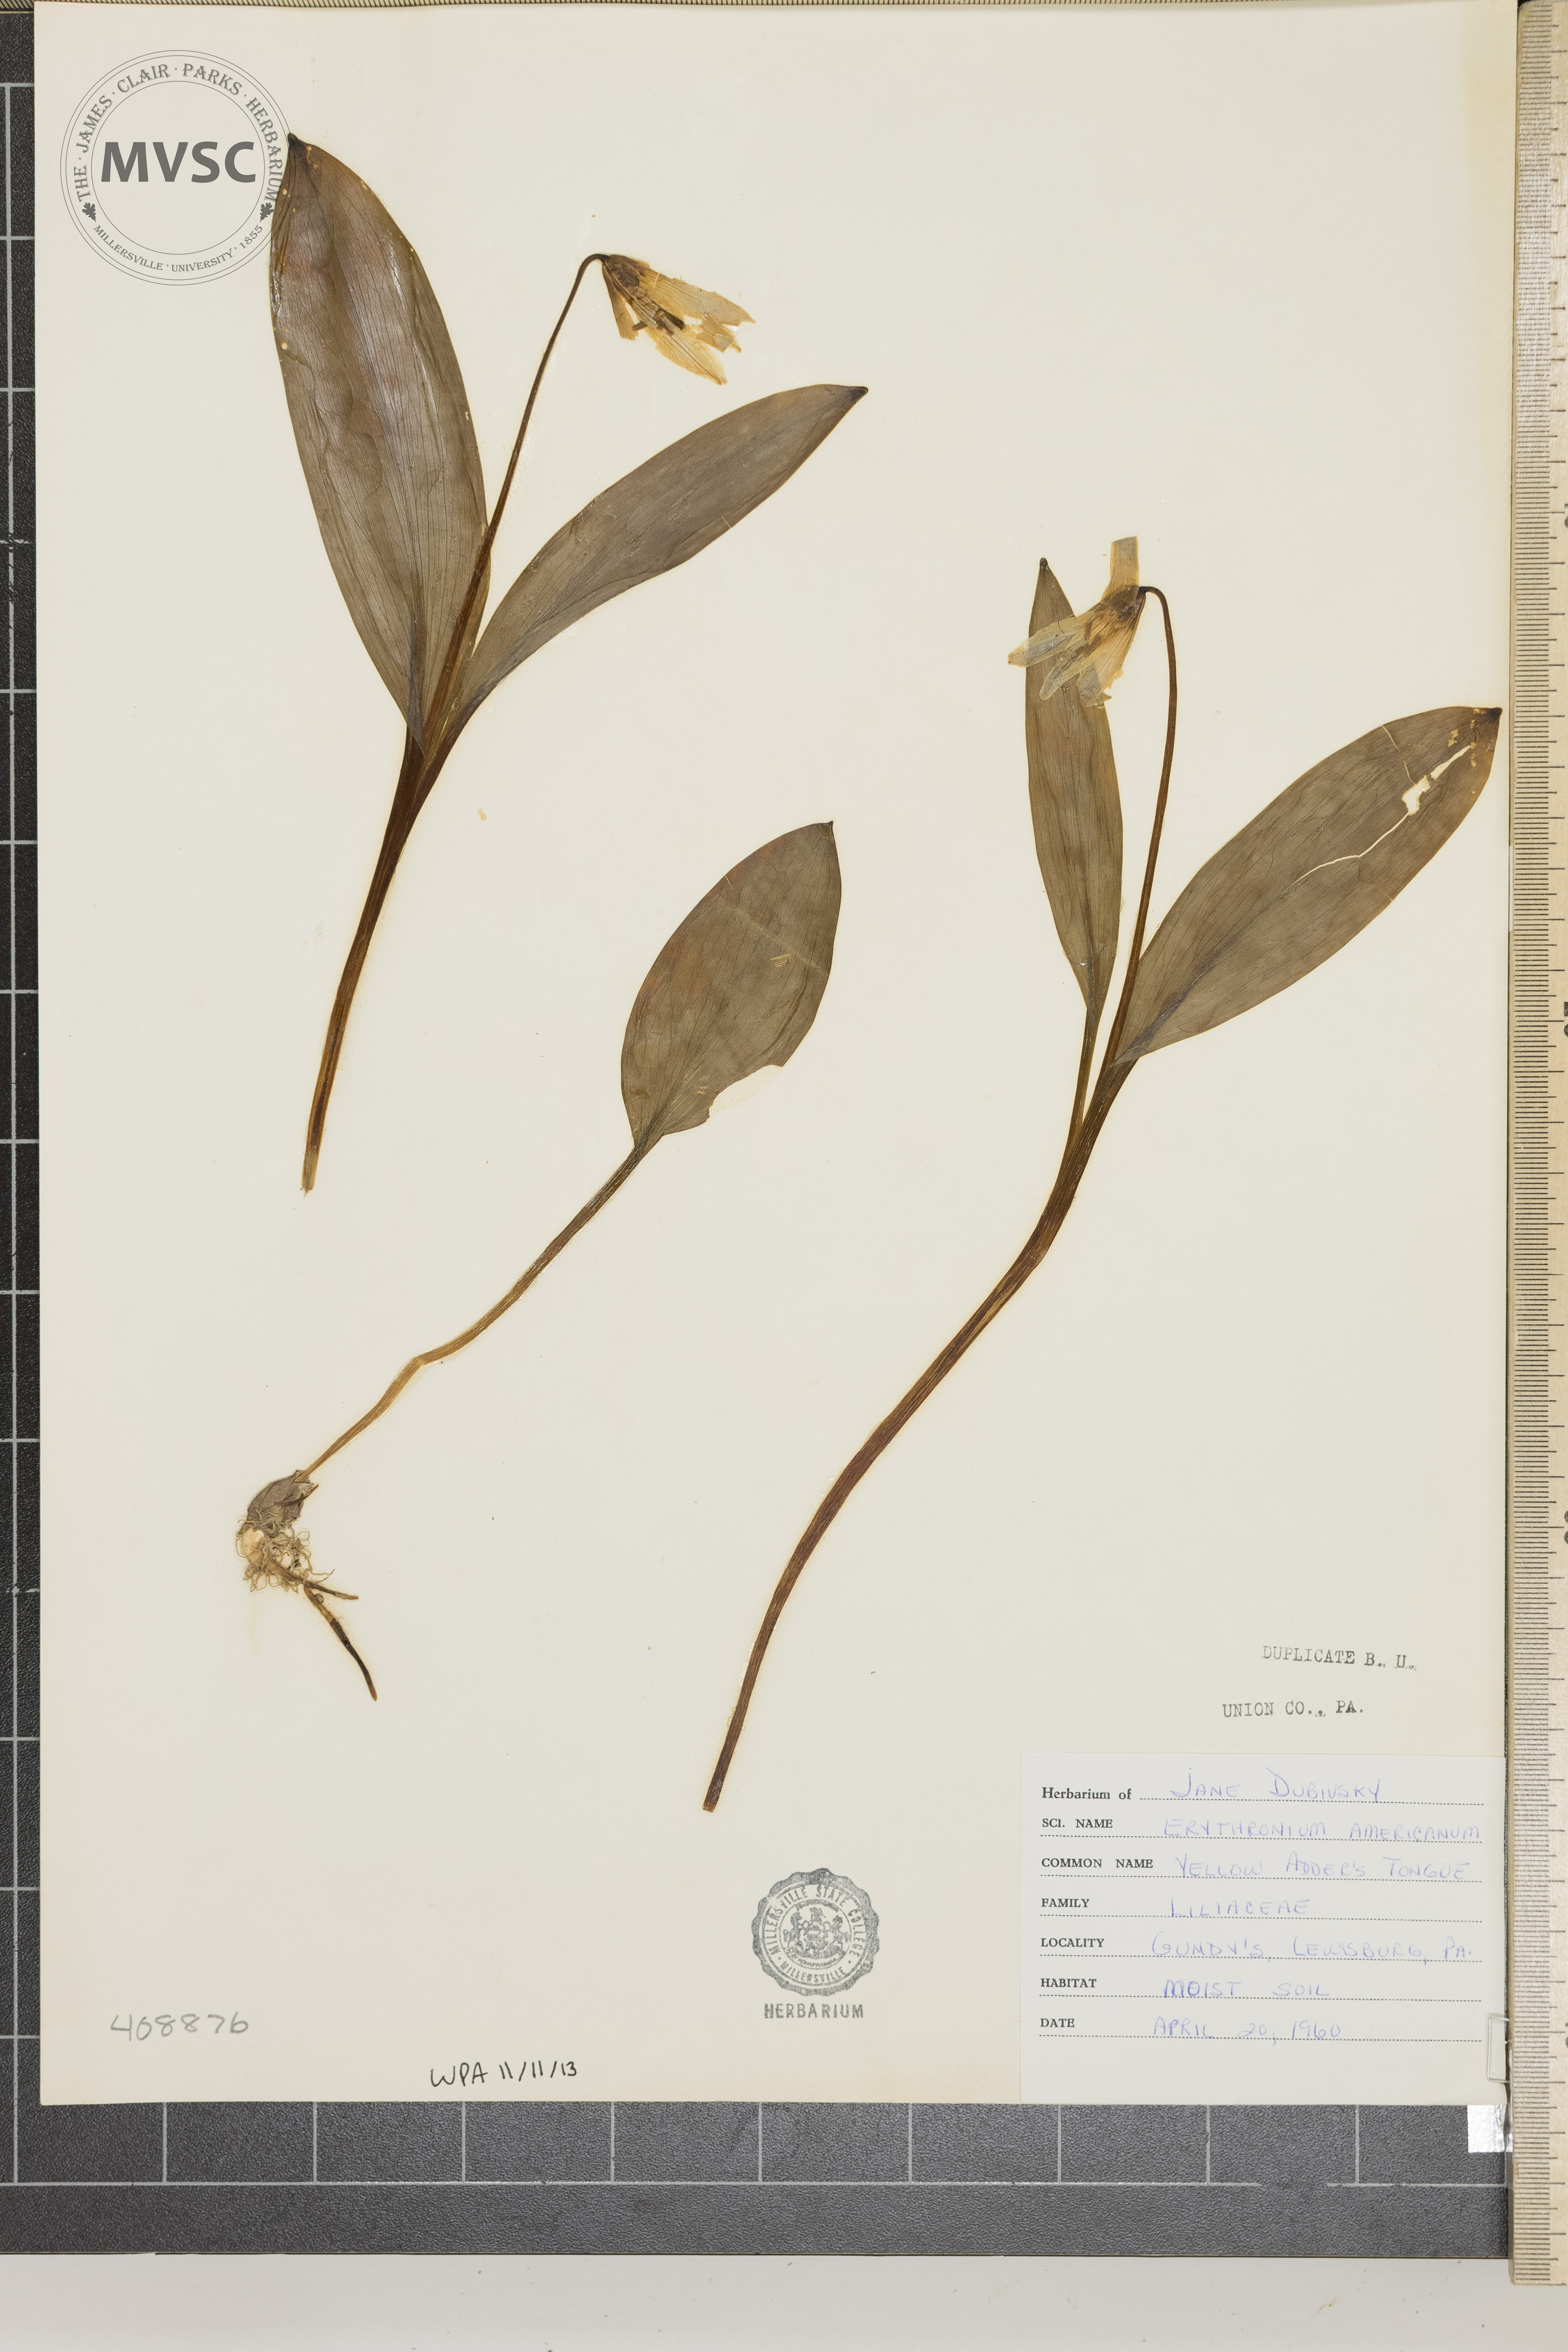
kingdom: Plantae
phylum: Tracheophyta
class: Liliopsida
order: Liliales
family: Liliaceae
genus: Erythronium
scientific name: Erythronium americanum
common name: Yellow adder's-tongue
